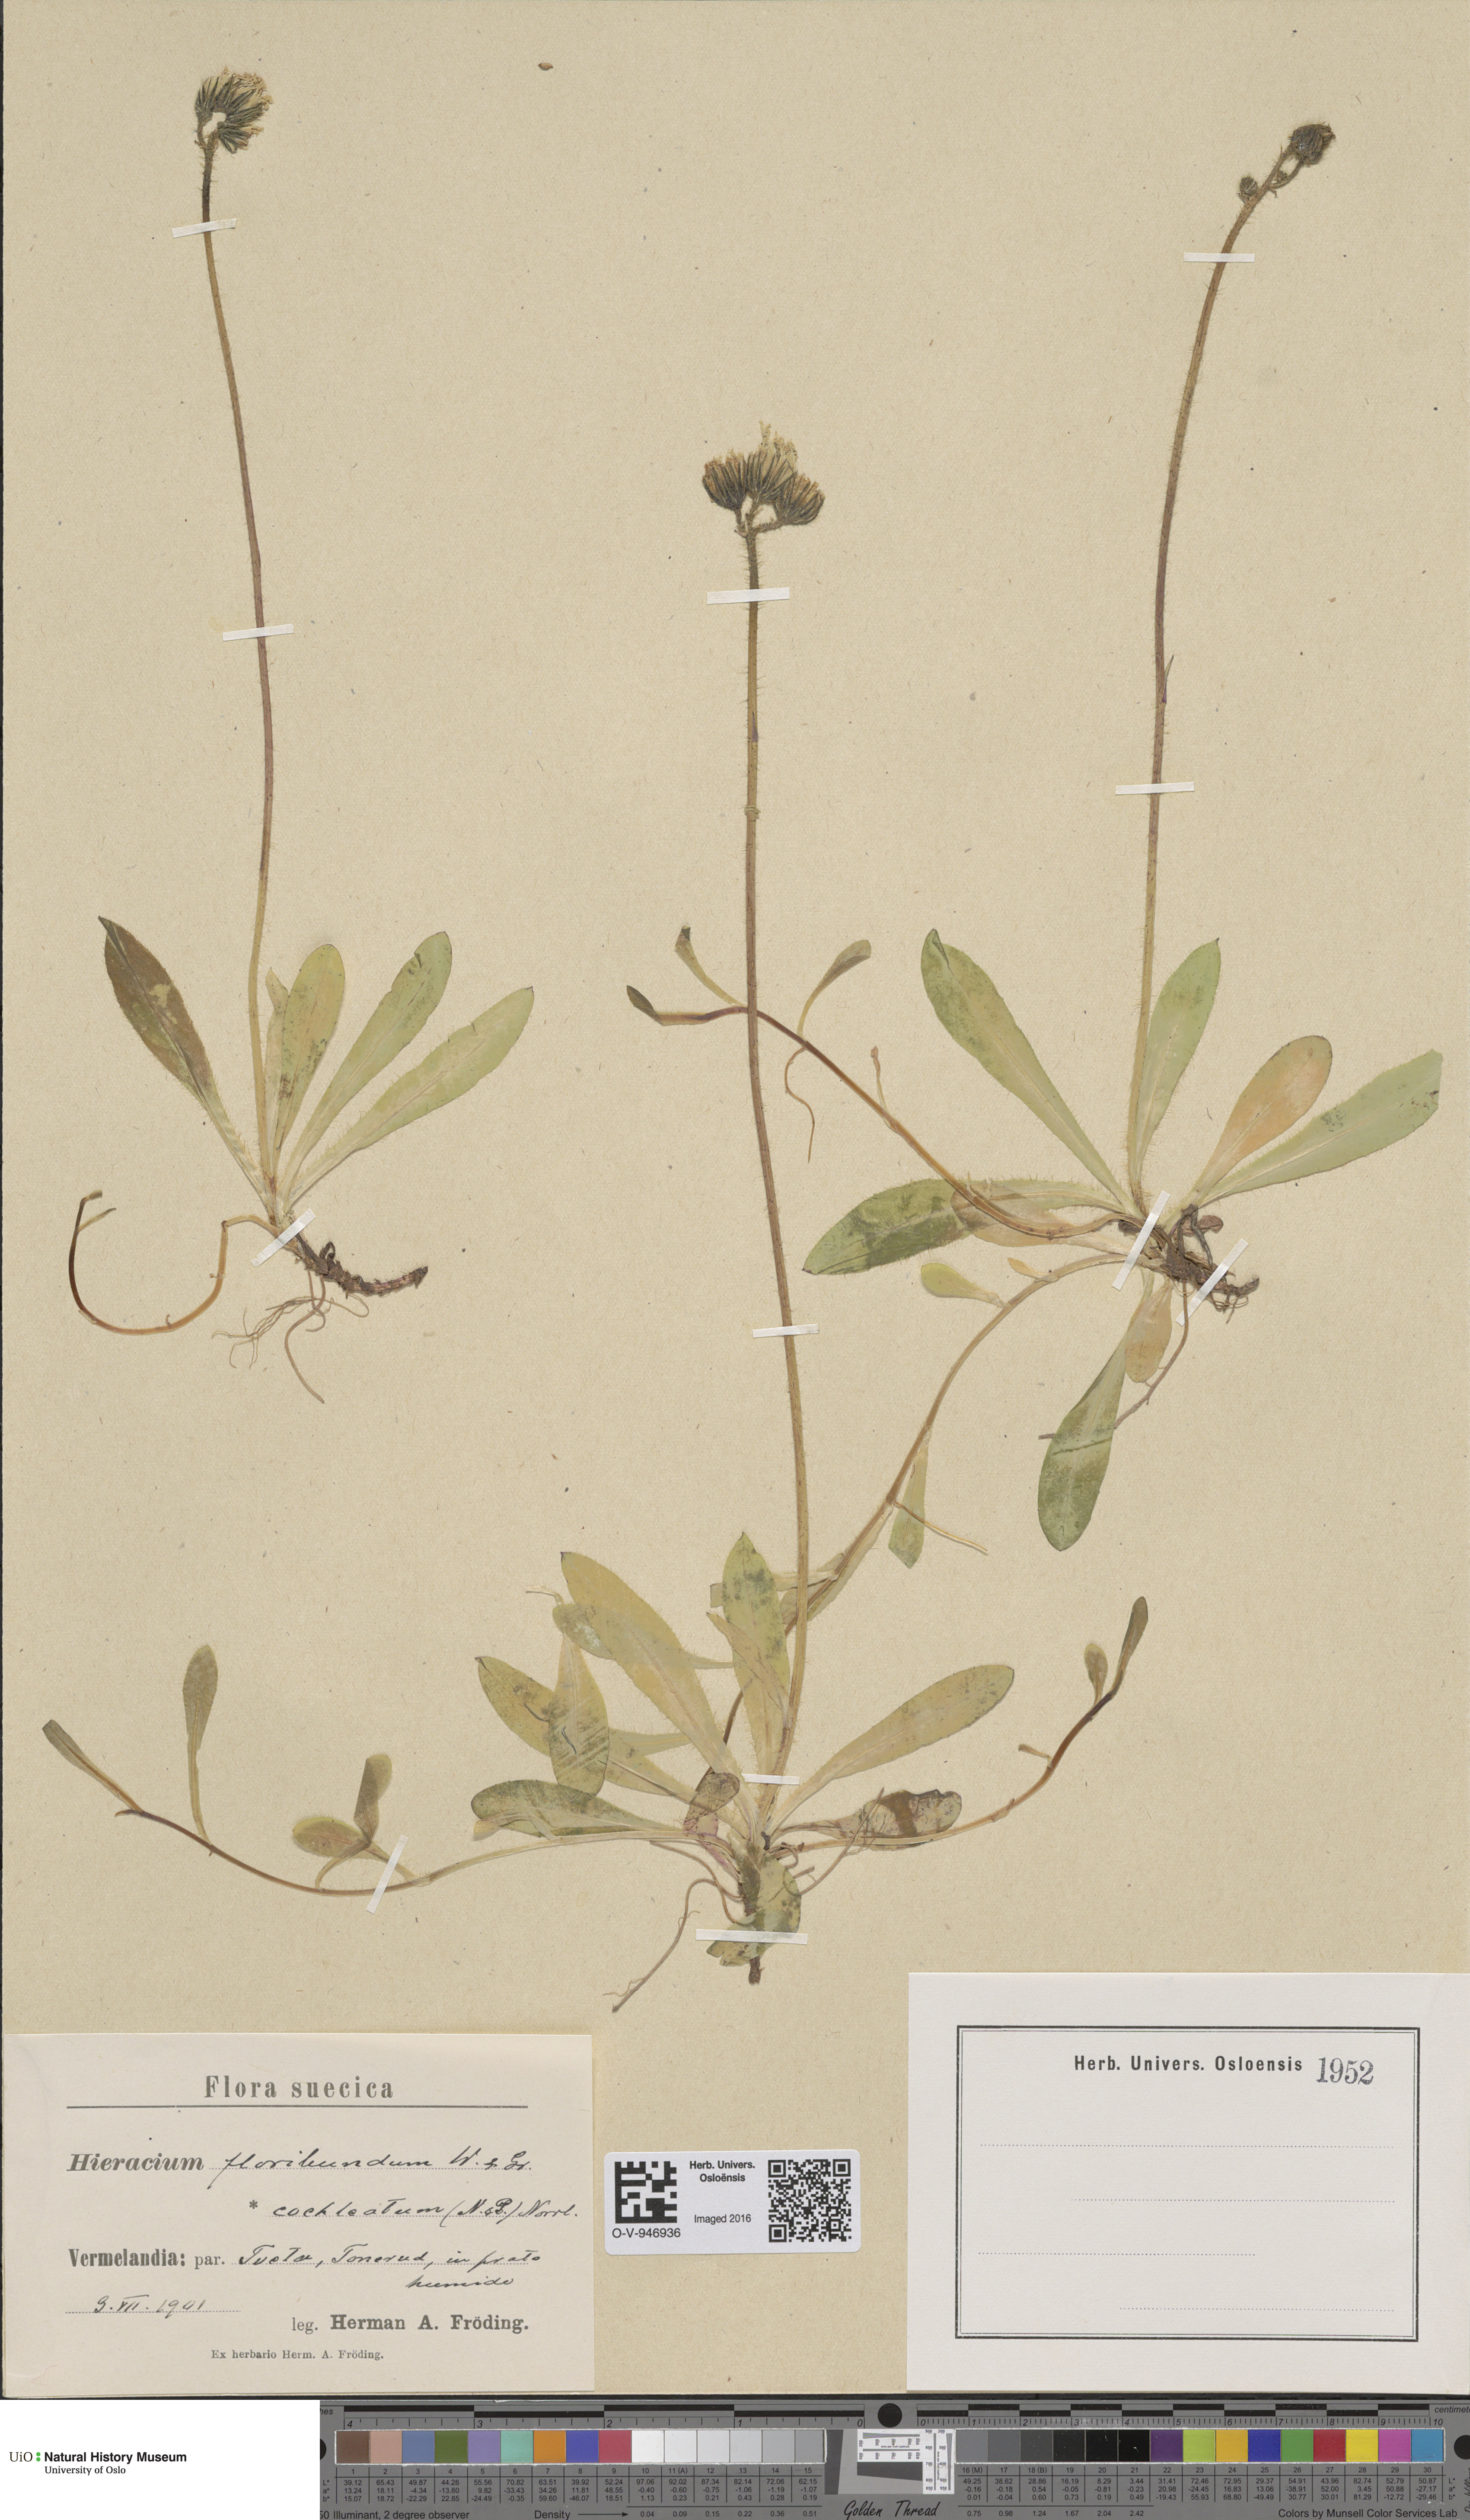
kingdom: Plantae
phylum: Tracheophyta
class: Magnoliopsida
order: Asterales
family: Asteraceae
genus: Pilosella
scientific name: Pilosella floribunda
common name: Glaucous hawkweed
